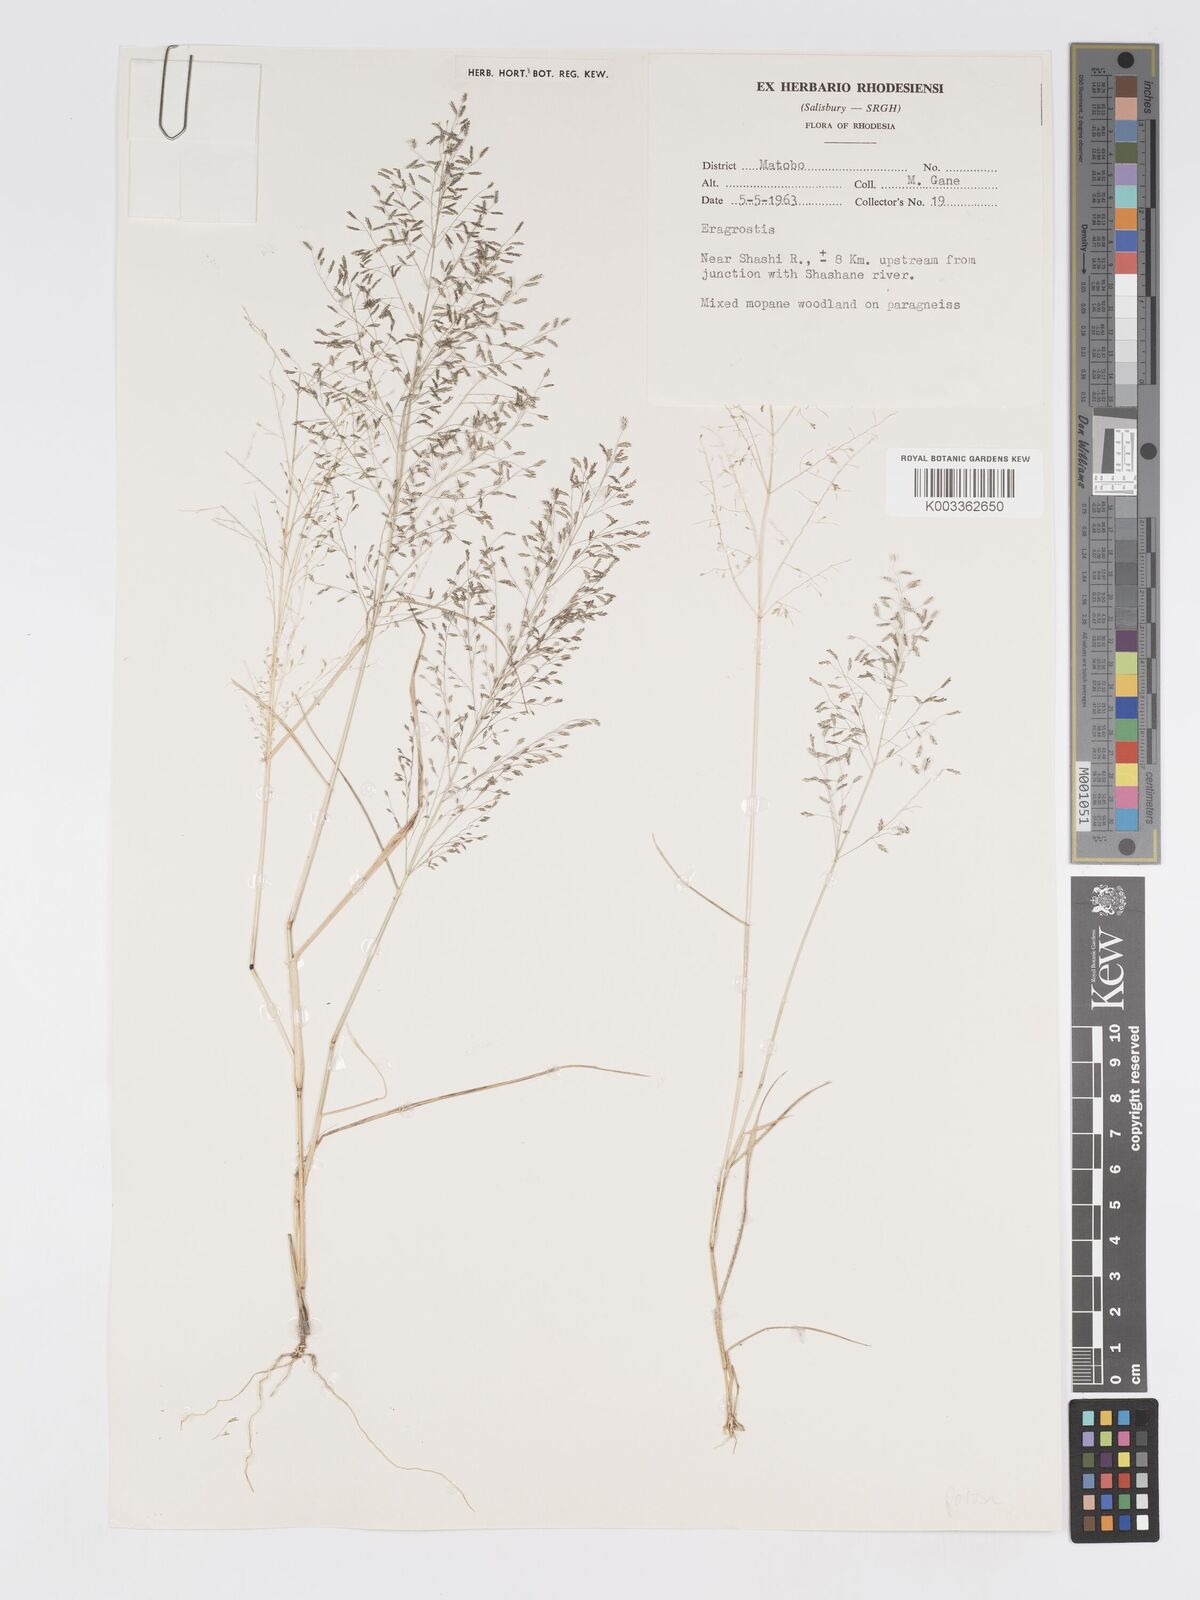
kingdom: Plantae
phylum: Tracheophyta
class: Liliopsida
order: Poales
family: Poaceae
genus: Eragrostis
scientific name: Eragrostis porosa
